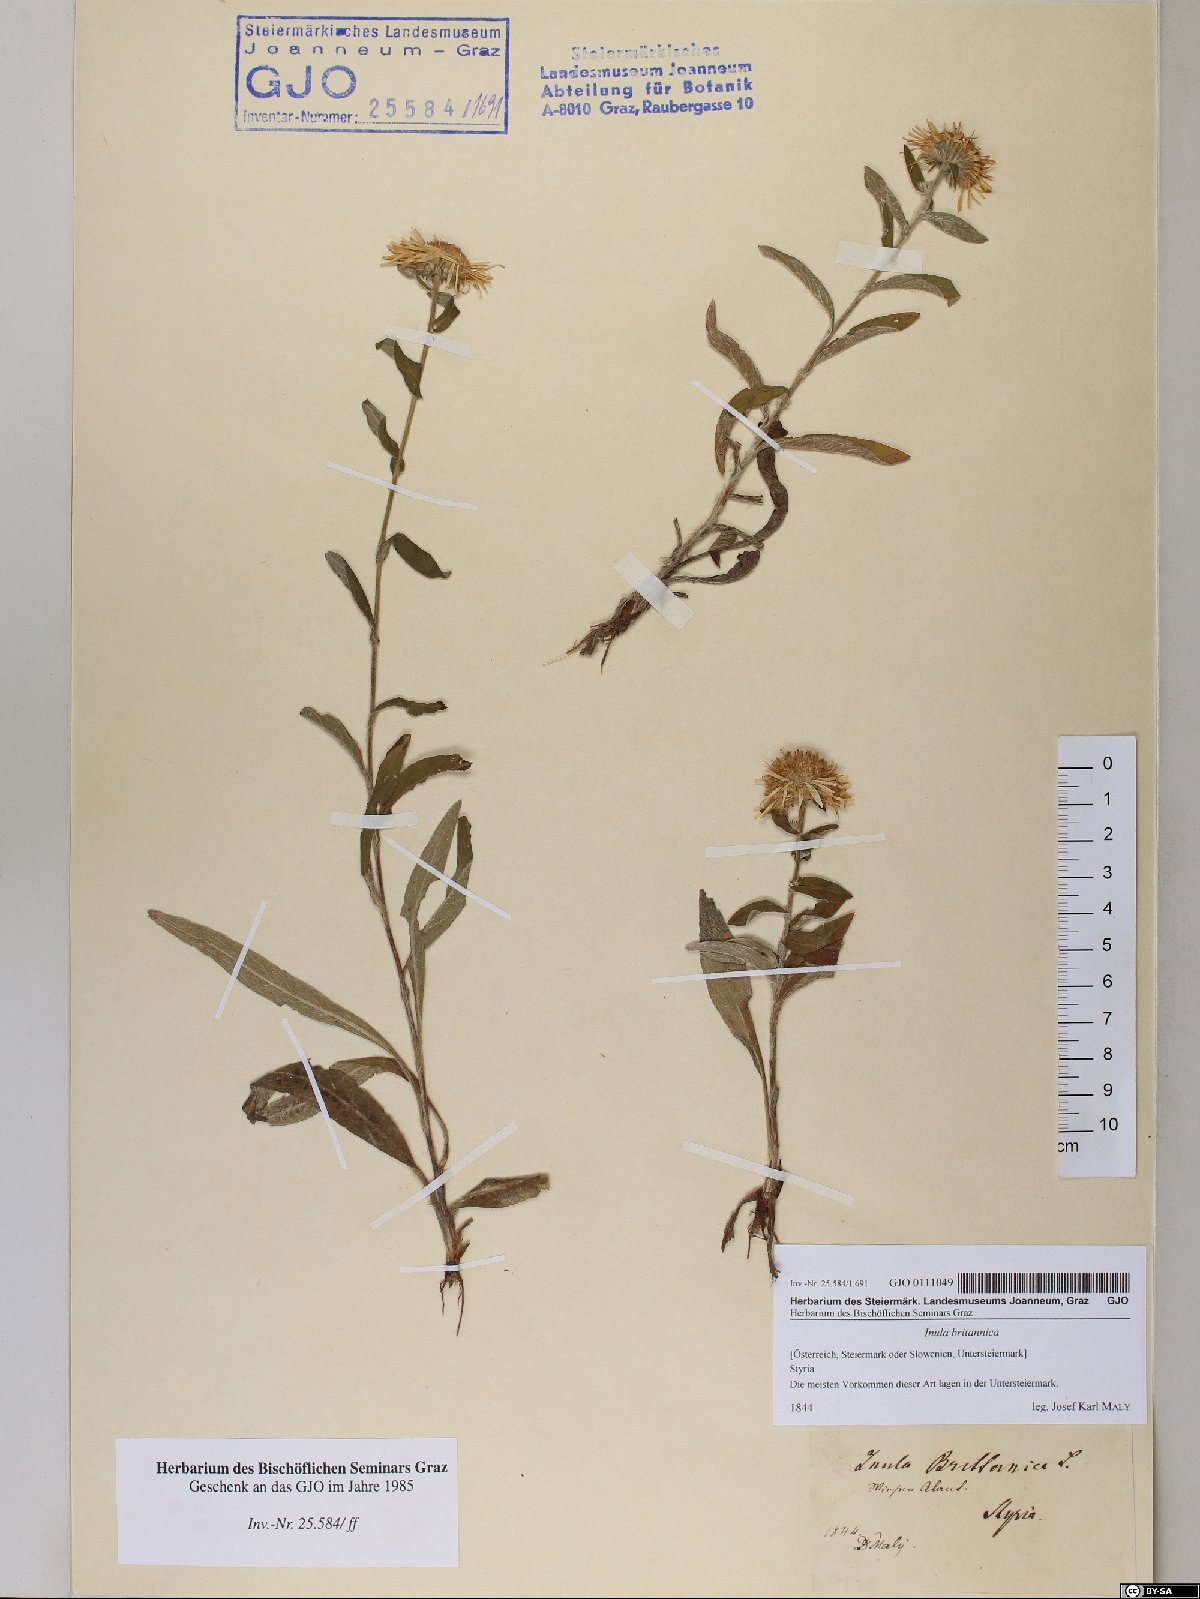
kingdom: Plantae
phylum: Tracheophyta
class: Magnoliopsida
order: Asterales
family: Asteraceae
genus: Pentanema
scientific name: Pentanema britannicum
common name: British elecampane
